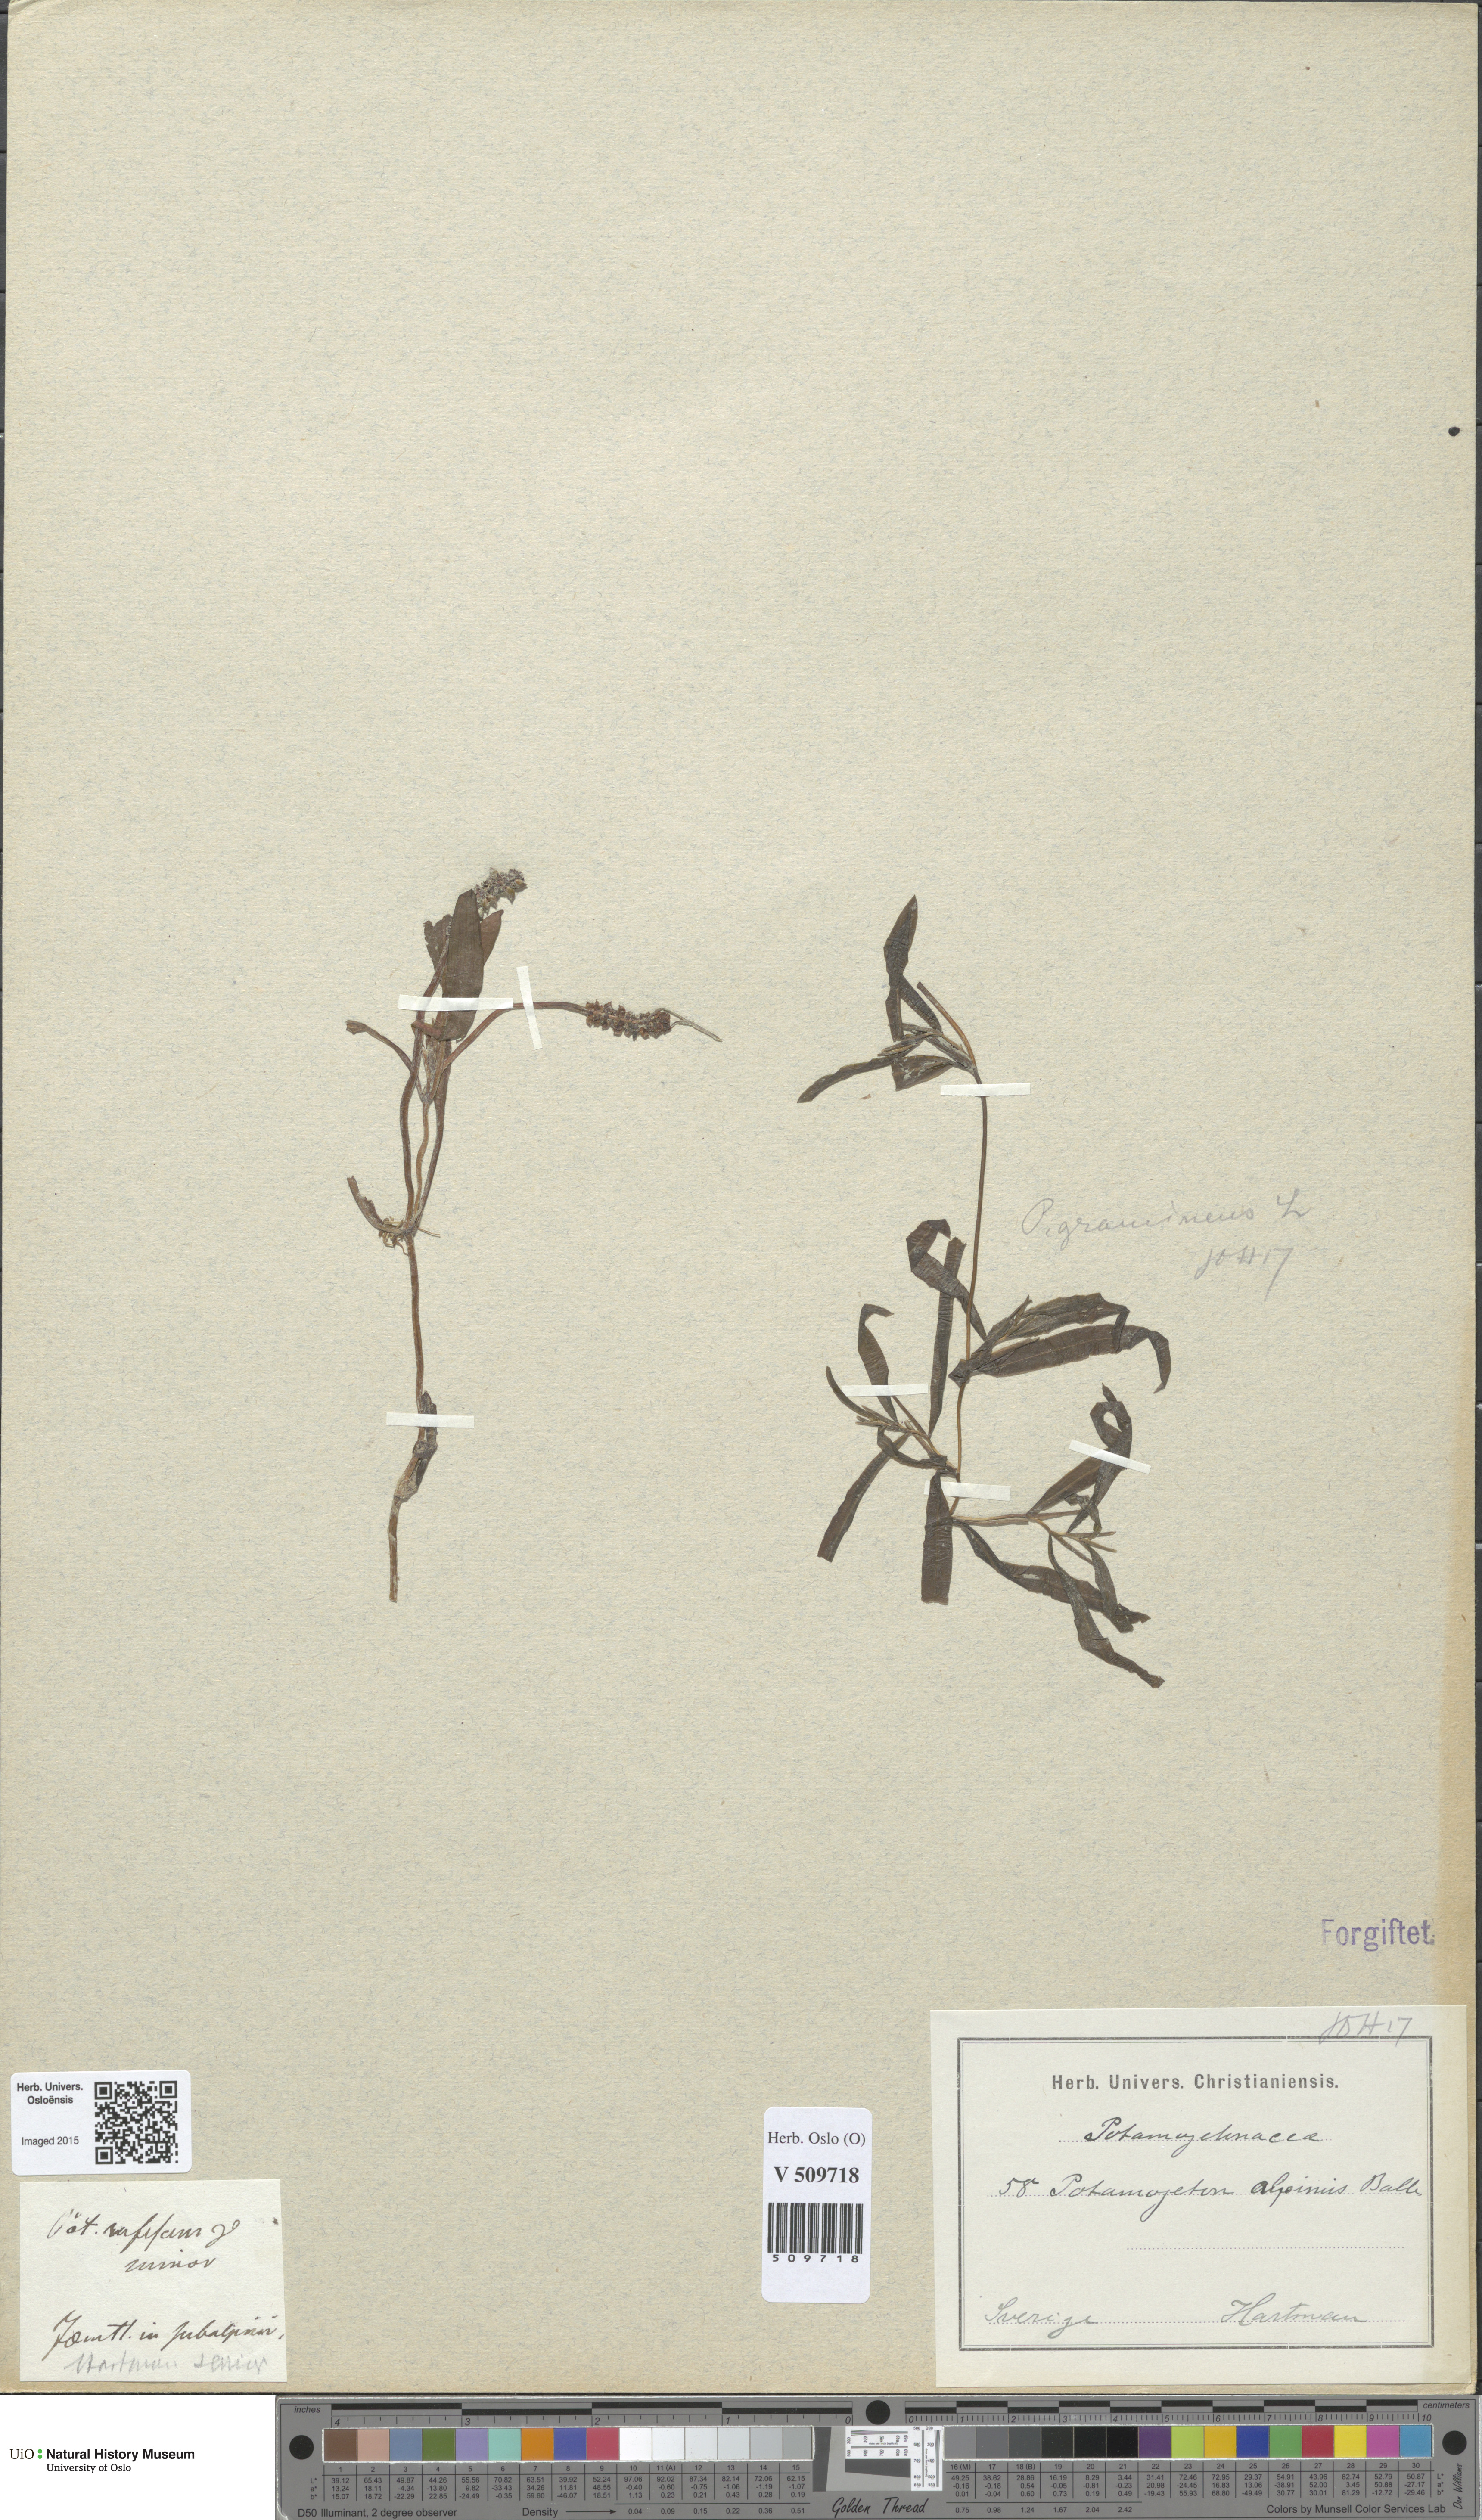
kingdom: Plantae
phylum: Tracheophyta
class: Liliopsida
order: Alismatales
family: Potamogetonaceae
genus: Potamogeton
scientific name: Potamogeton alpinus
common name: Red pondweed
